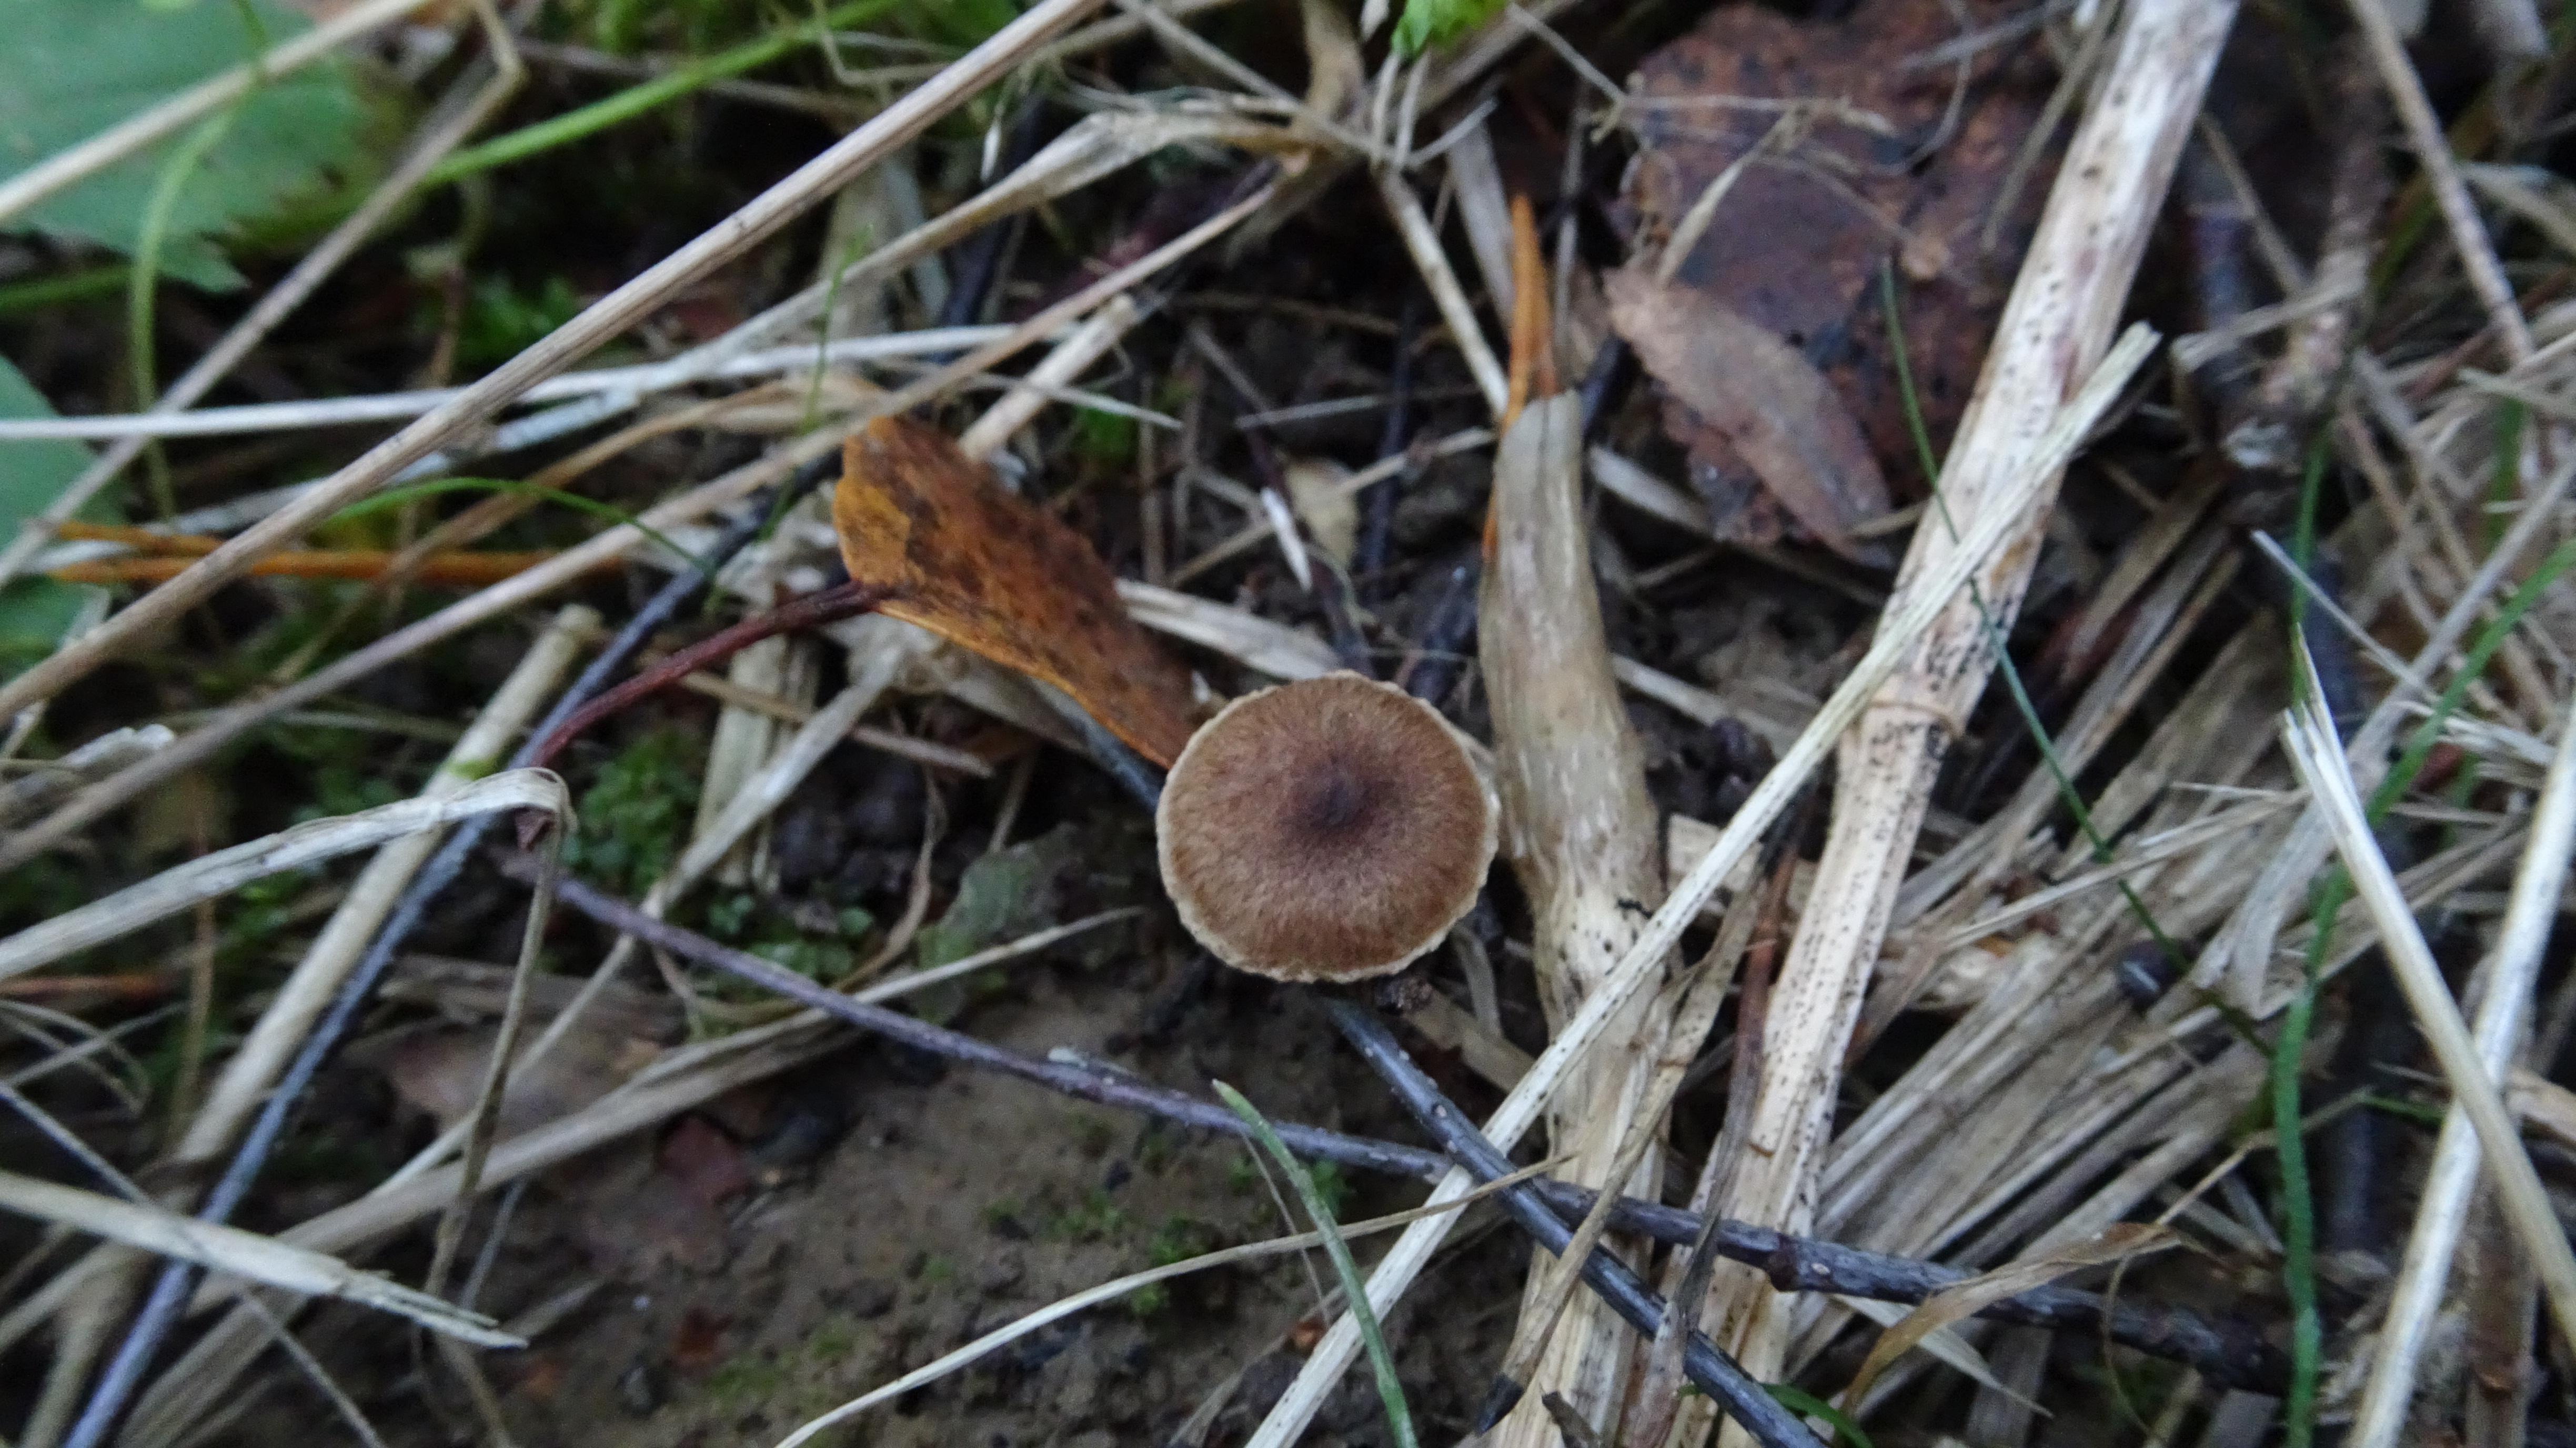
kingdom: Fungi
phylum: Basidiomycota
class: Agaricomycetes
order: Agaricales
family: Inocybaceae
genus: Inocybe
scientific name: Inocybe
